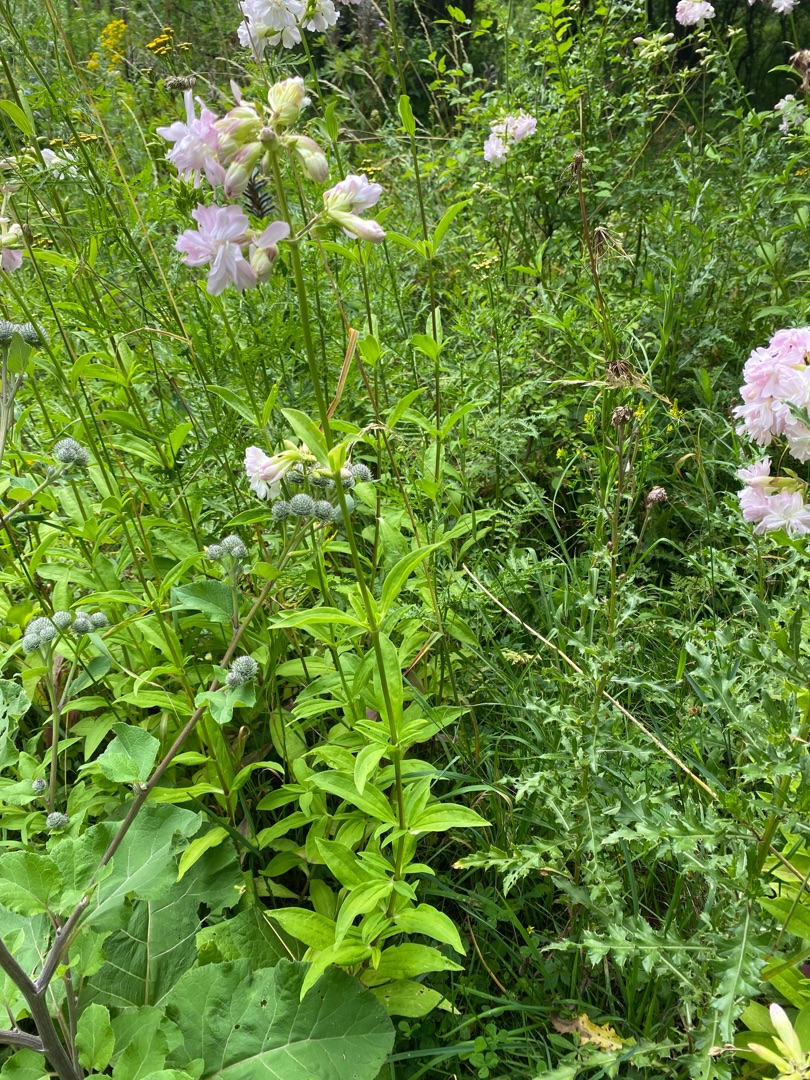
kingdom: Plantae
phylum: Tracheophyta
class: Magnoliopsida
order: Caryophyllales
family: Caryophyllaceae
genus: Saponaria
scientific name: Saponaria officinalis
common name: Sæbeurt
